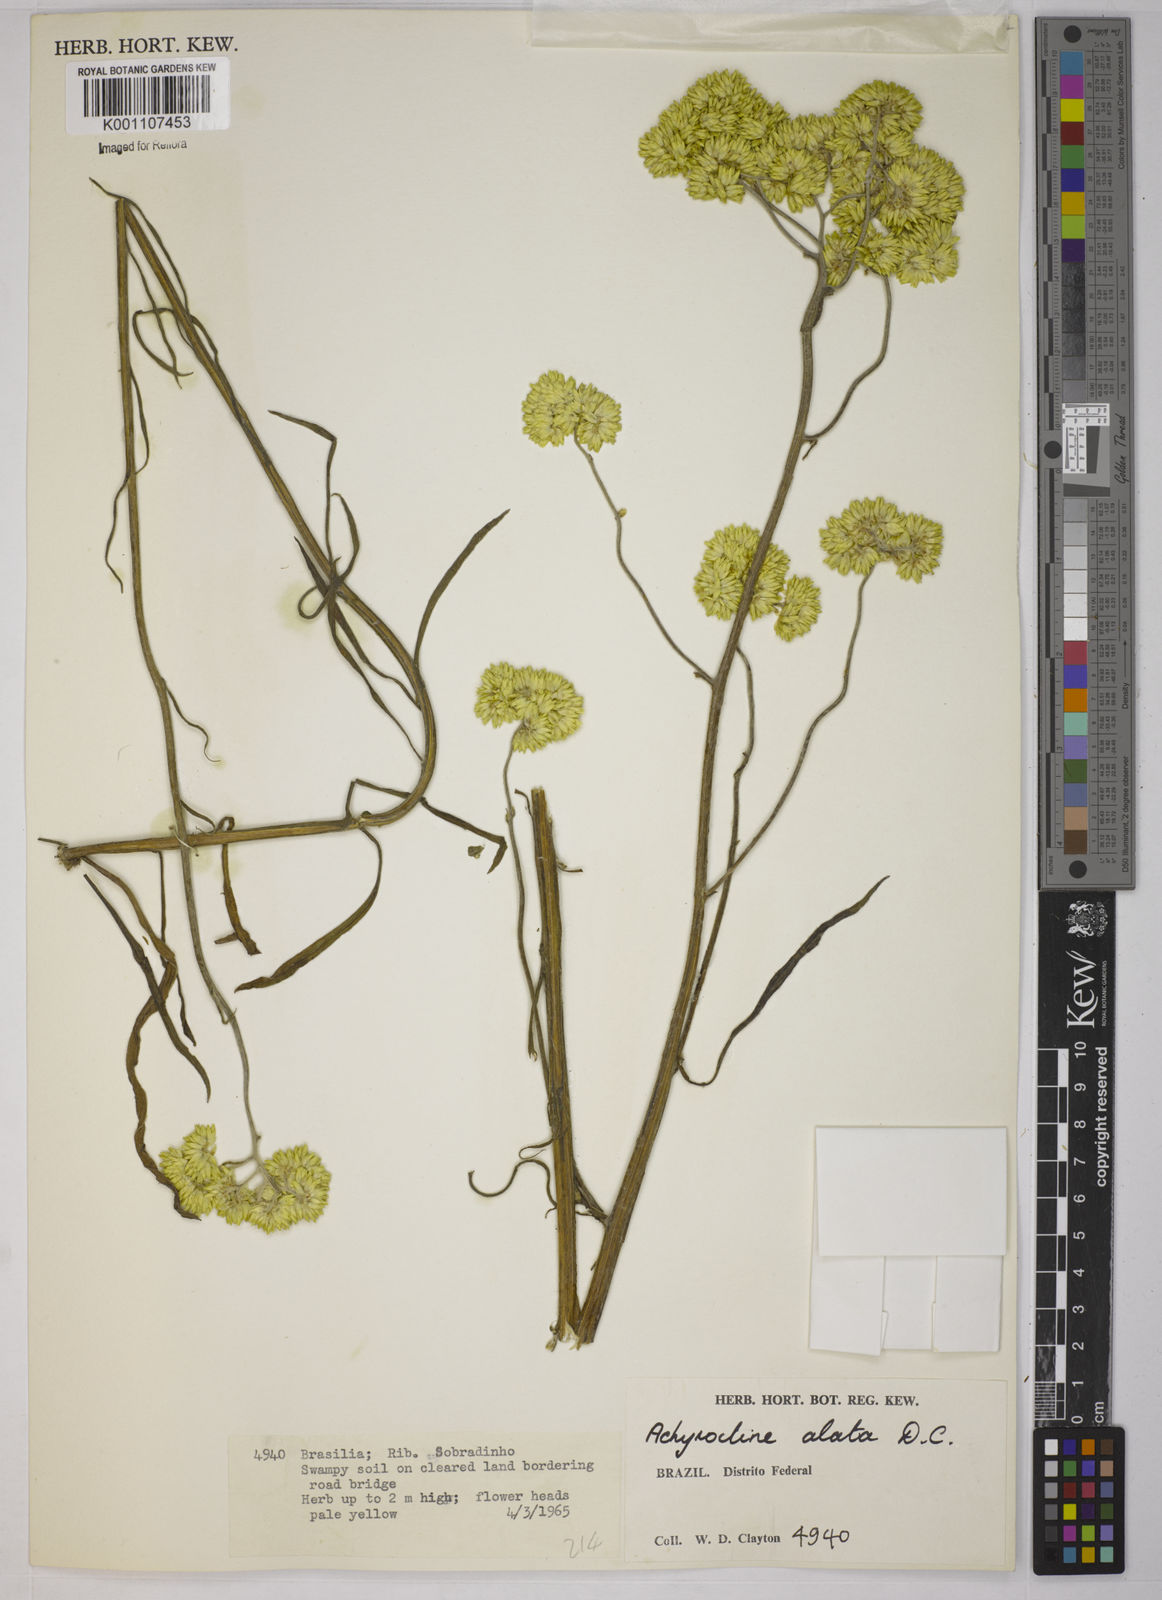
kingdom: Plantae
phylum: Tracheophyta
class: Magnoliopsida
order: Asterales
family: Asteraceae
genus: Achyrocline
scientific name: Achyrocline alata
